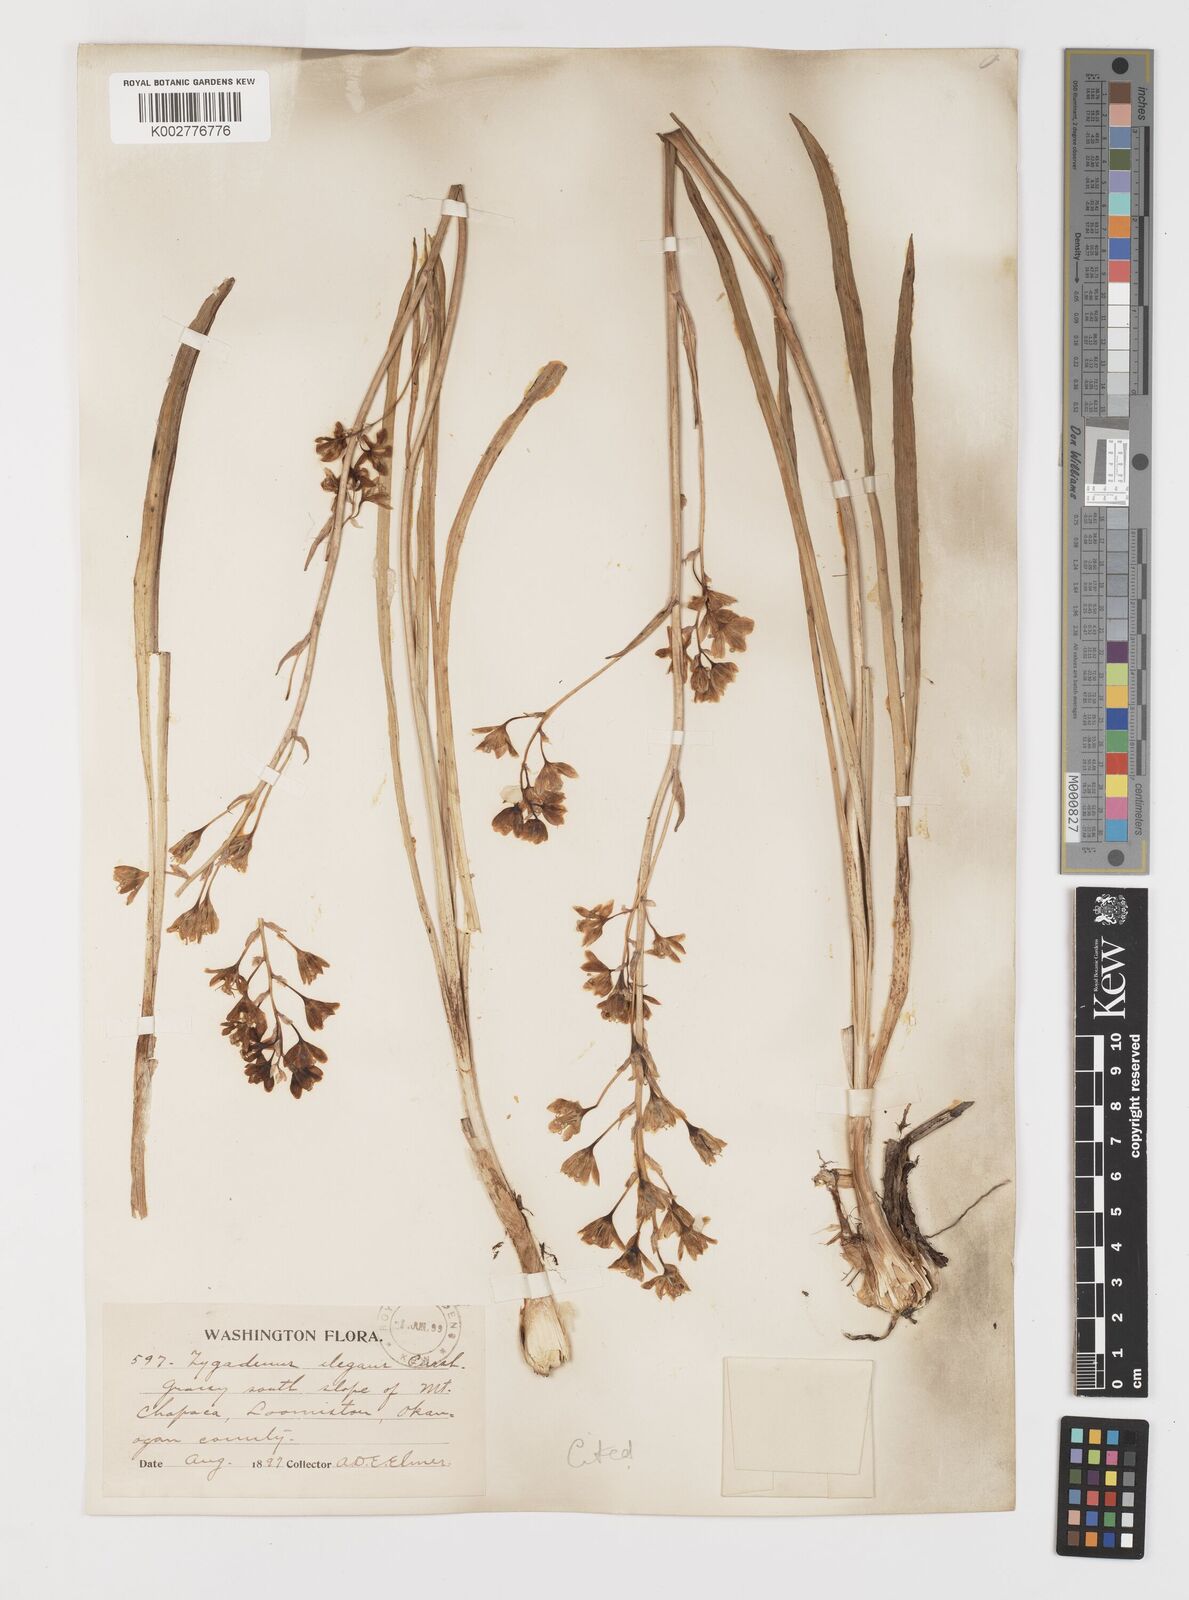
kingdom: Plantae
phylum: Tracheophyta
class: Liliopsida
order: Liliales
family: Melanthiaceae
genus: Anticlea
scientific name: Anticlea elegans
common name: Mountain death camas
